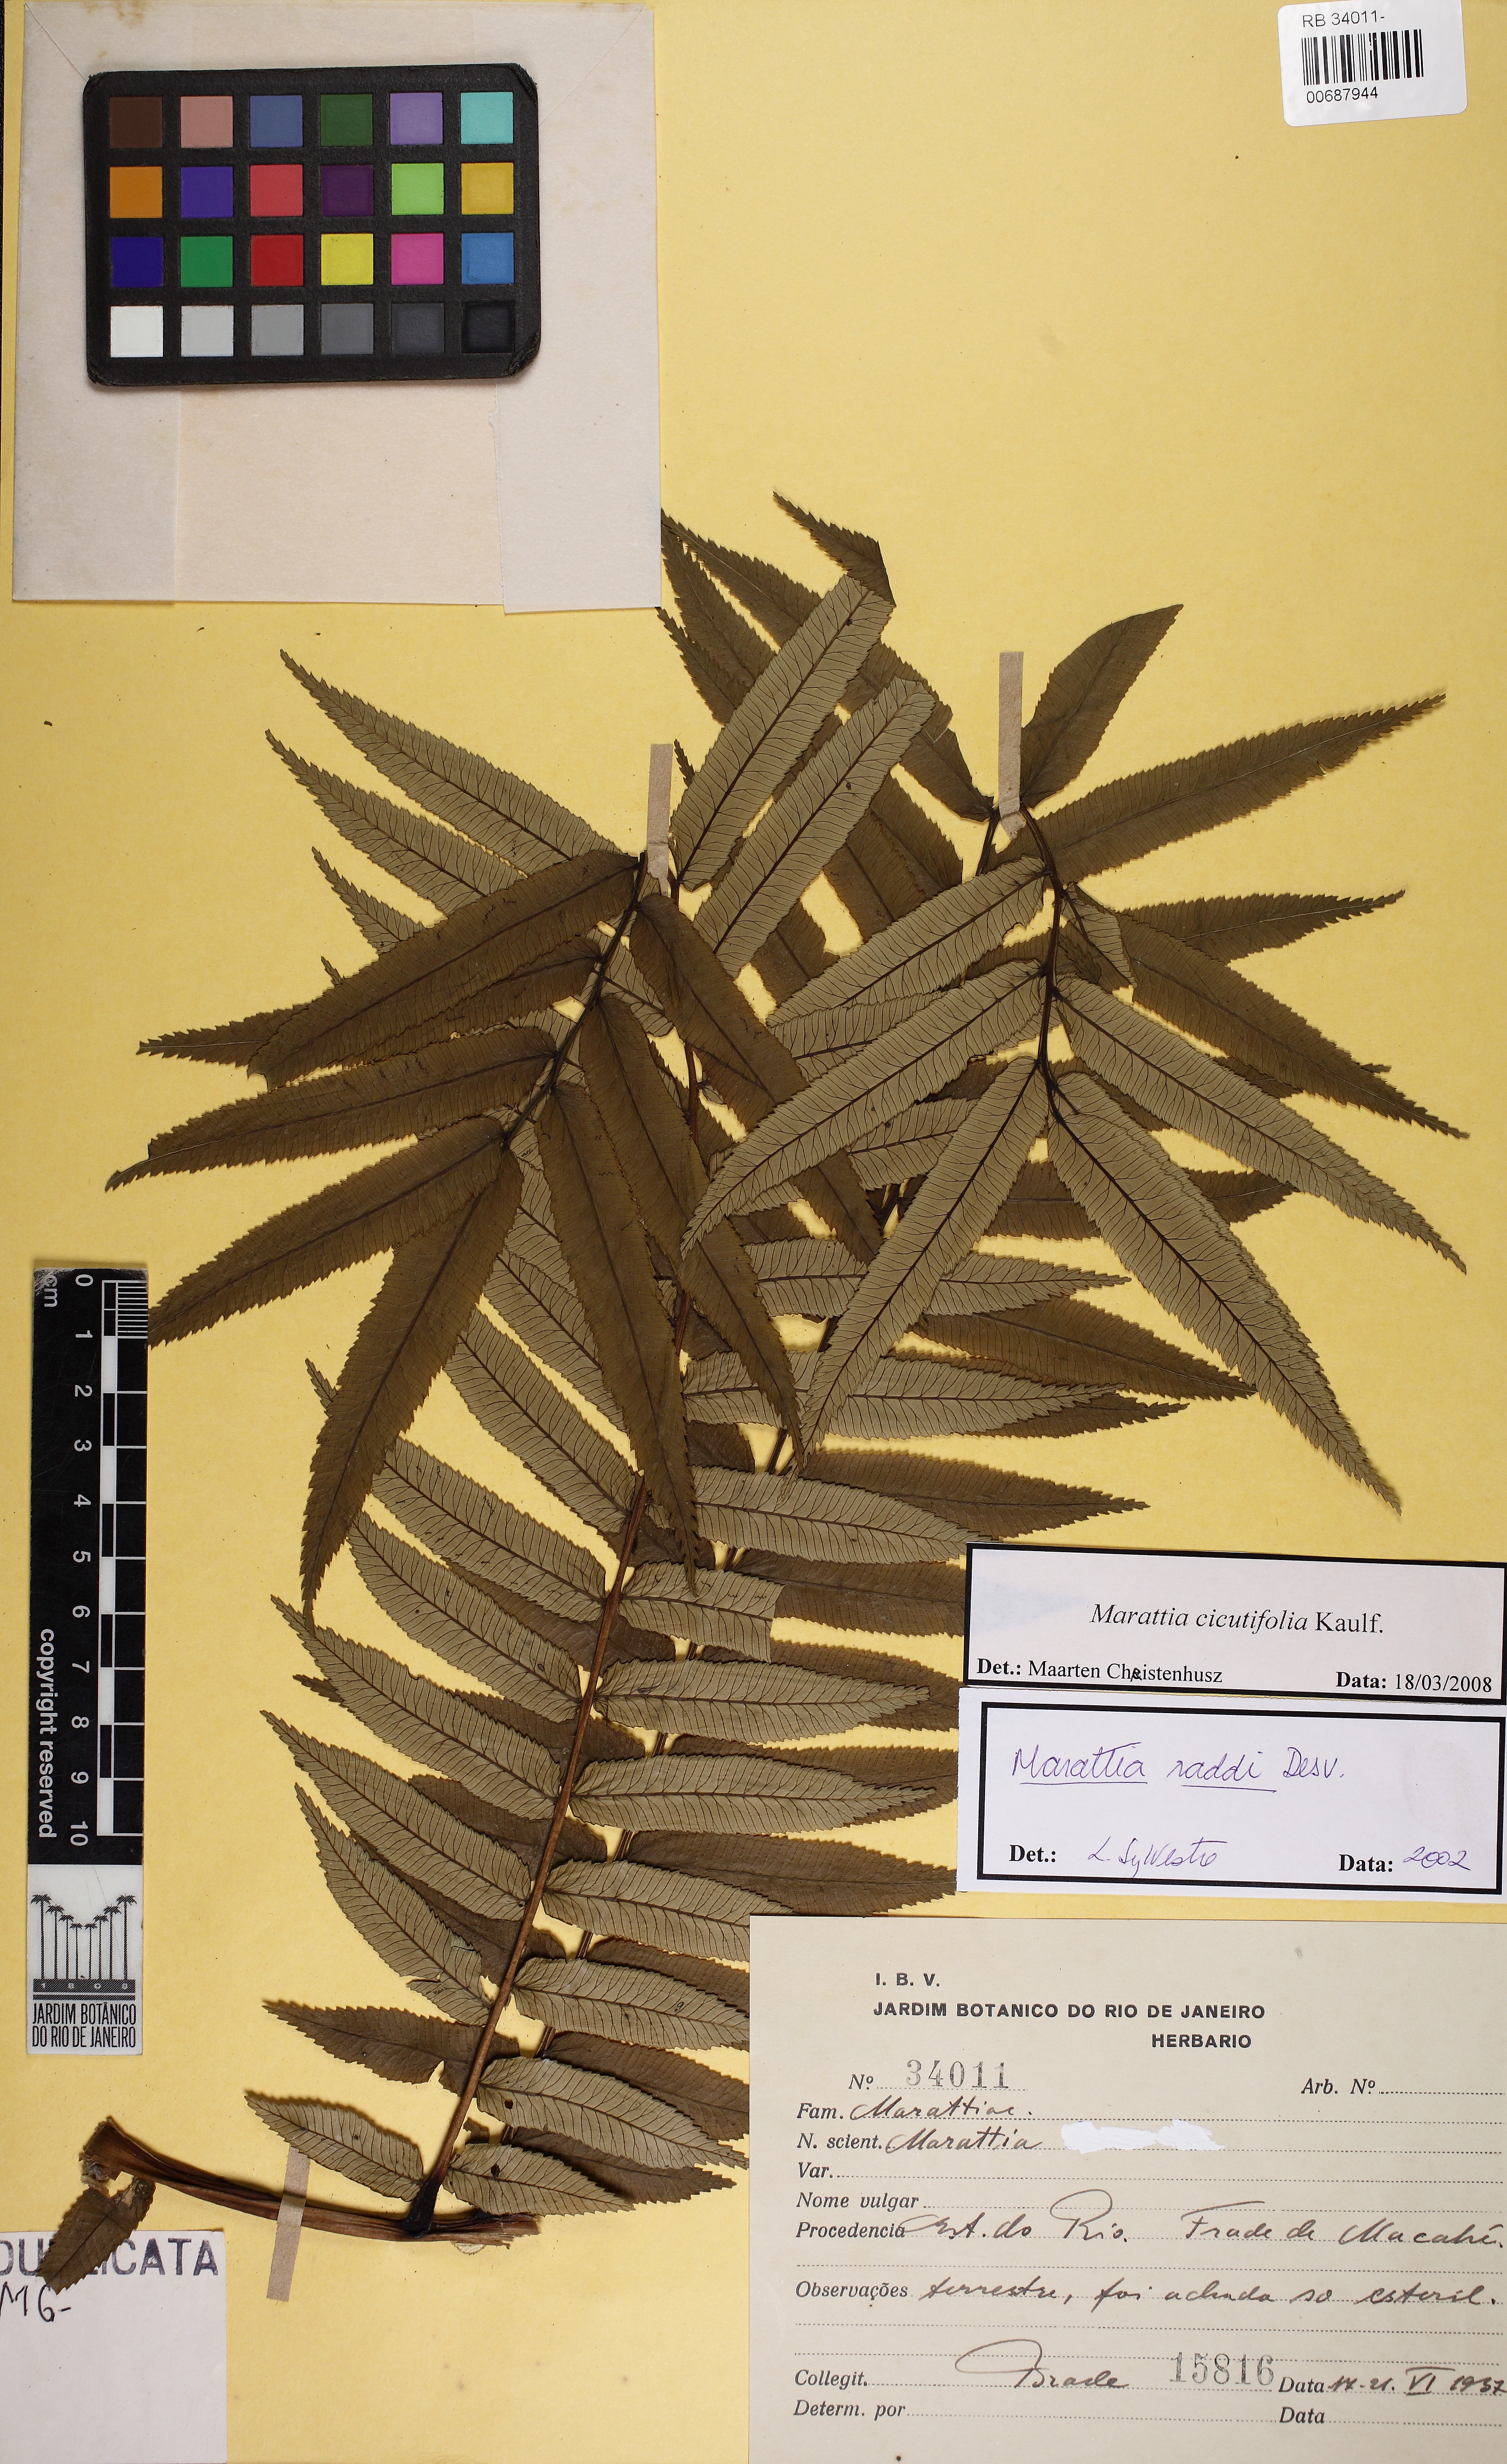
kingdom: Plantae
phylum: Tracheophyta
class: Polypodiopsida
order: Marattiales
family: Marattiaceae
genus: Eupodium
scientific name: Eupodium cicutifolium
